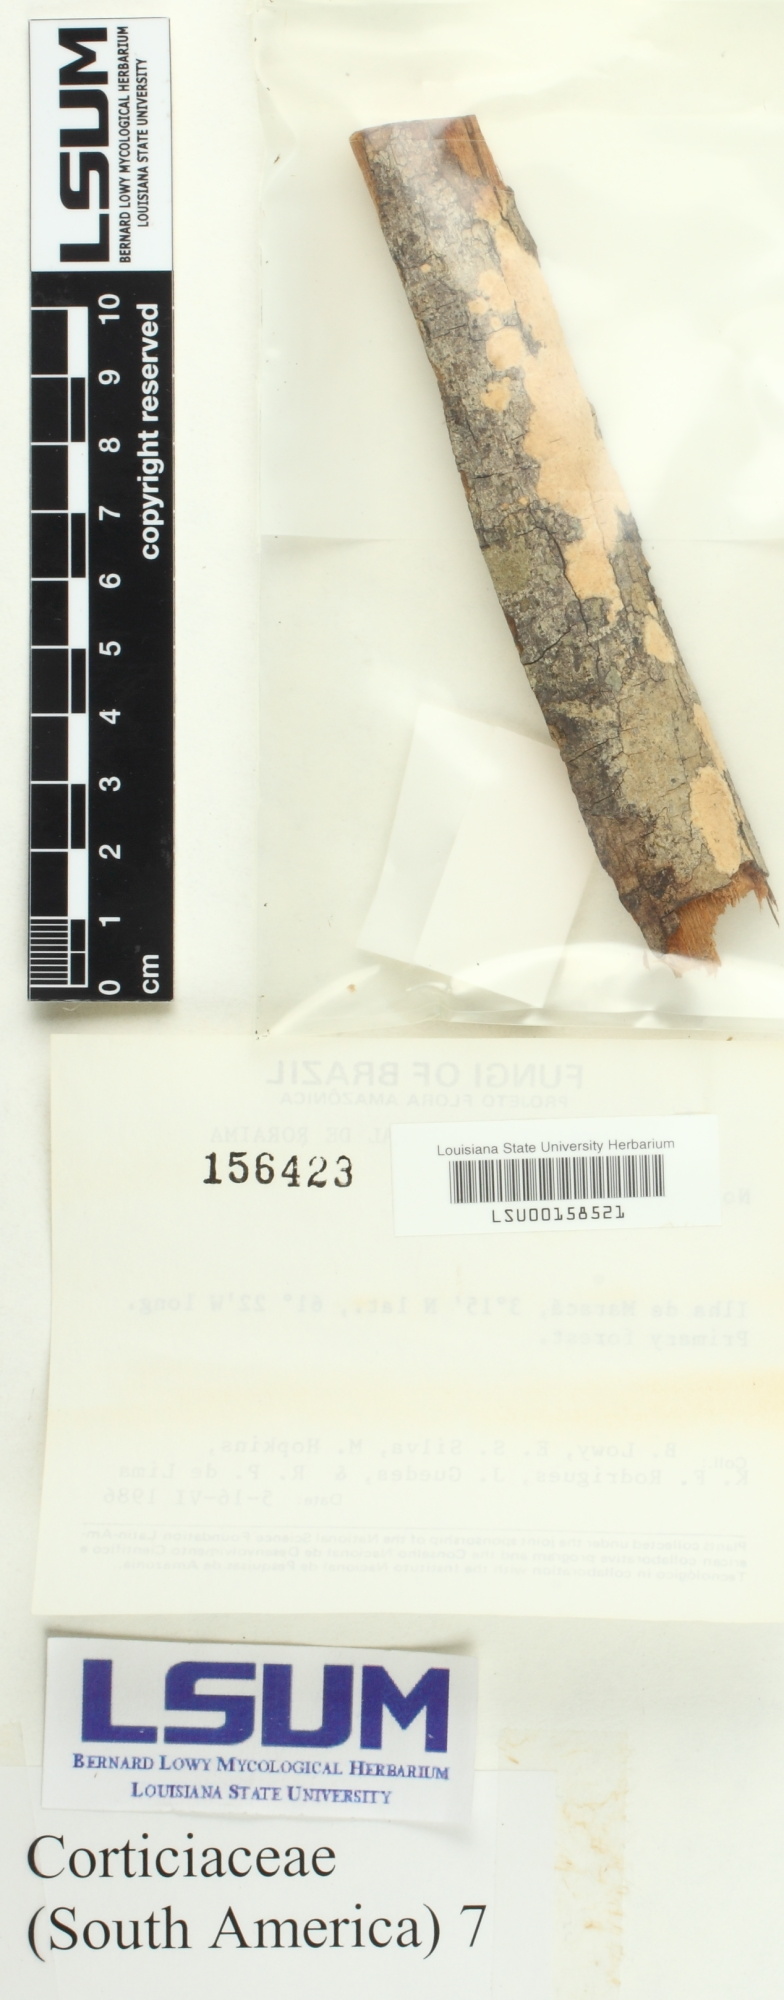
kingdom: Fungi
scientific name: Fungi
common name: Fungi
